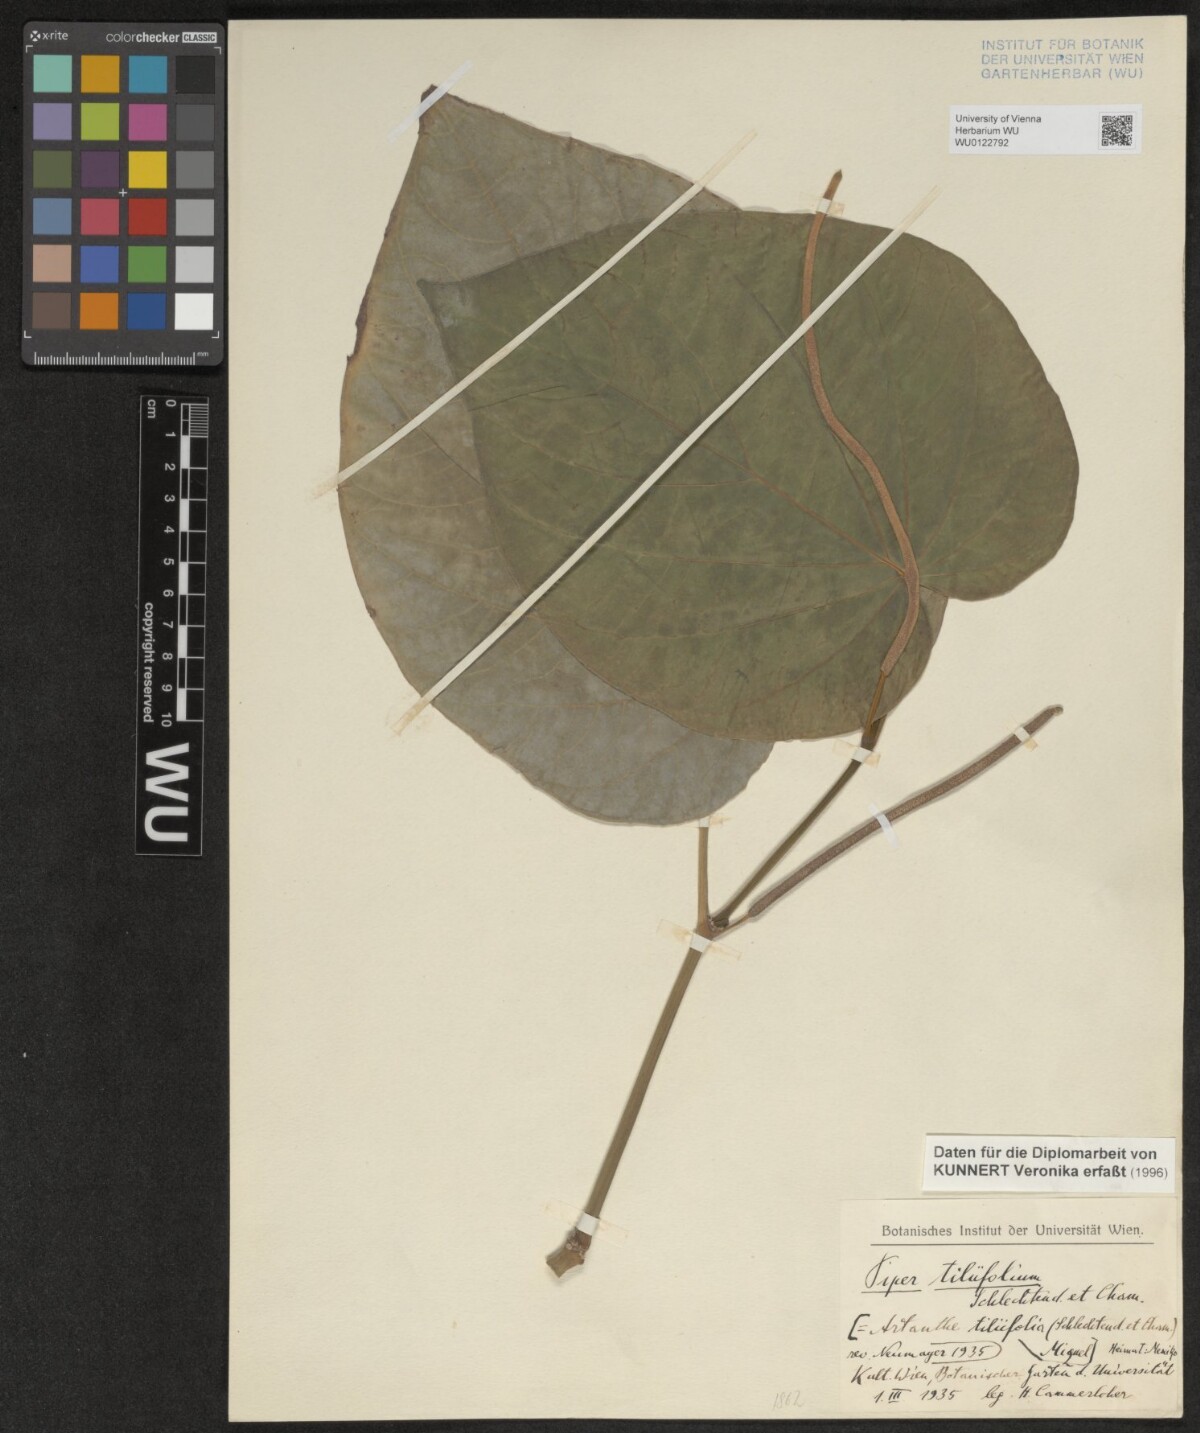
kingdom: Plantae
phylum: Tracheophyta
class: Magnoliopsida
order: Piperales
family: Piperaceae
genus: Piper
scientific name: Piper schiedeanum
